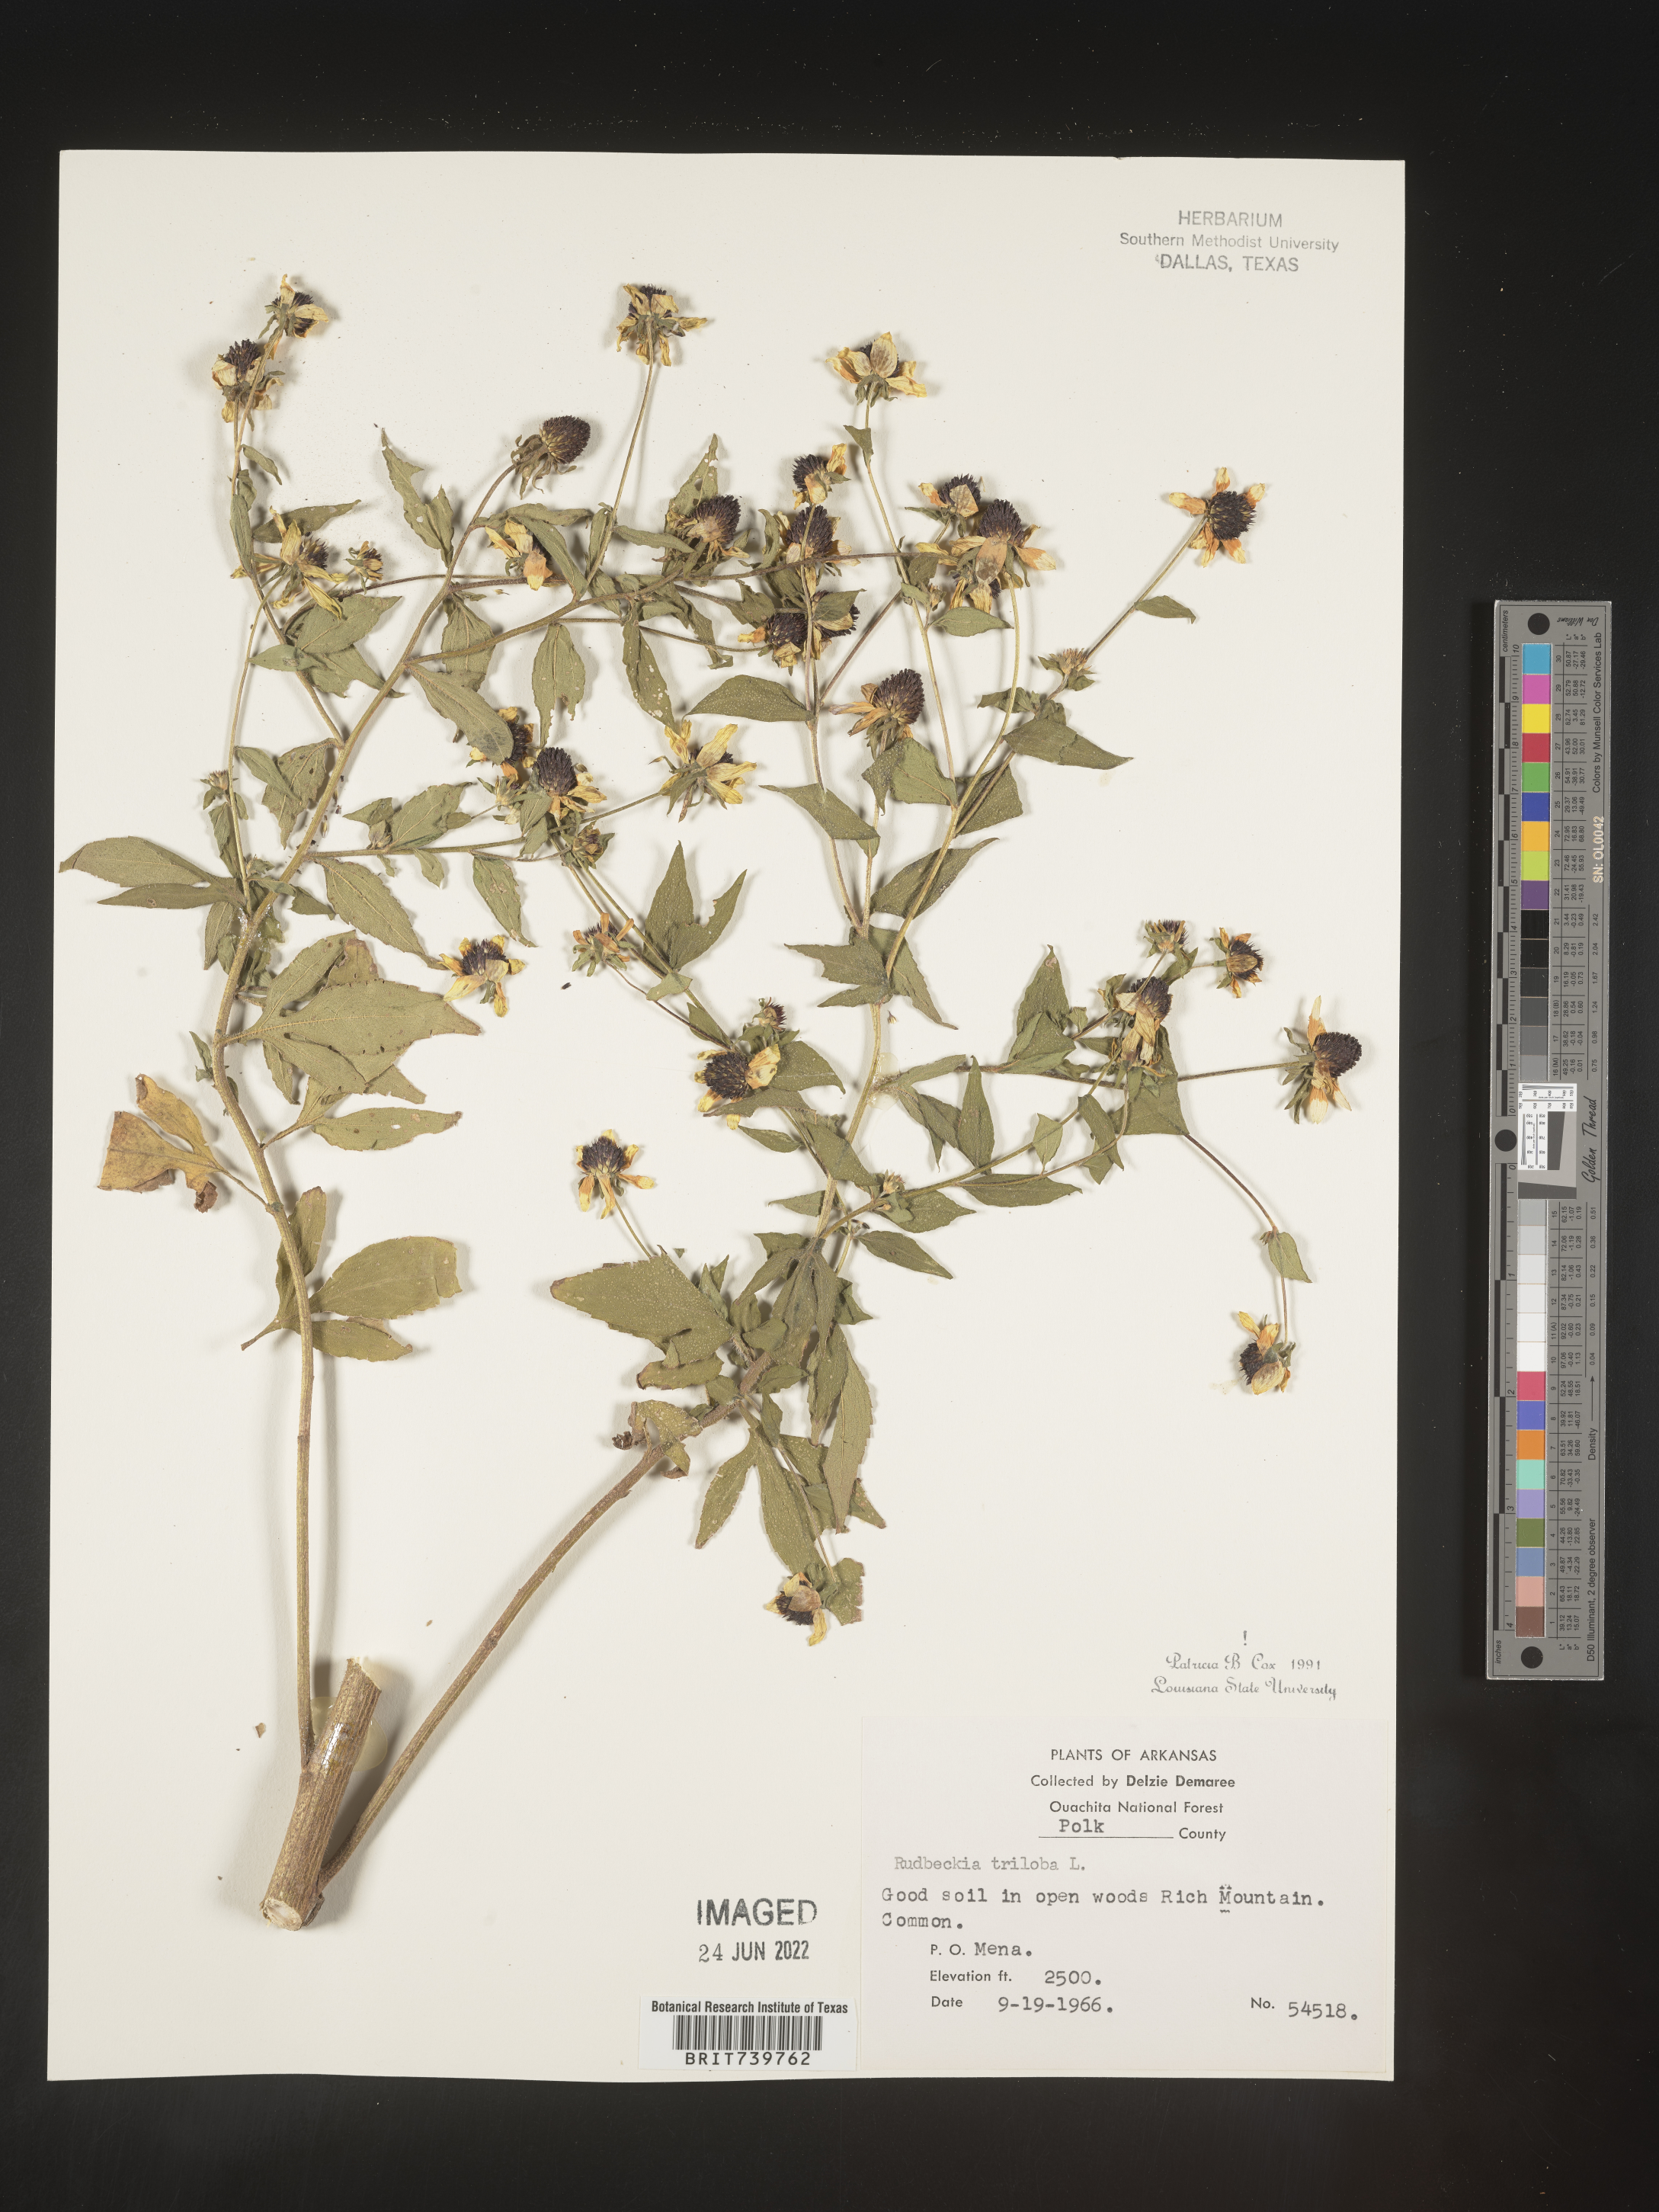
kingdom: Plantae
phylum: Tracheophyta
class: Magnoliopsida
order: Asterales
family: Asteraceae
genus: Rudbeckia
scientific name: Rudbeckia triloba
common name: Thin-leaved coneflower
